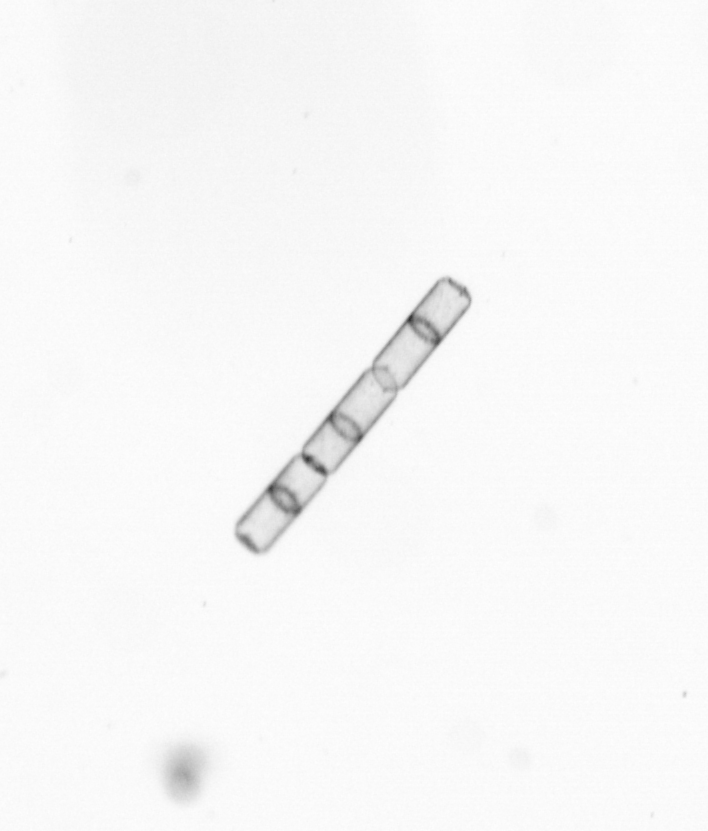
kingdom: Chromista
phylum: Ochrophyta
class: Bacillariophyceae
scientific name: Bacillariophyceae
